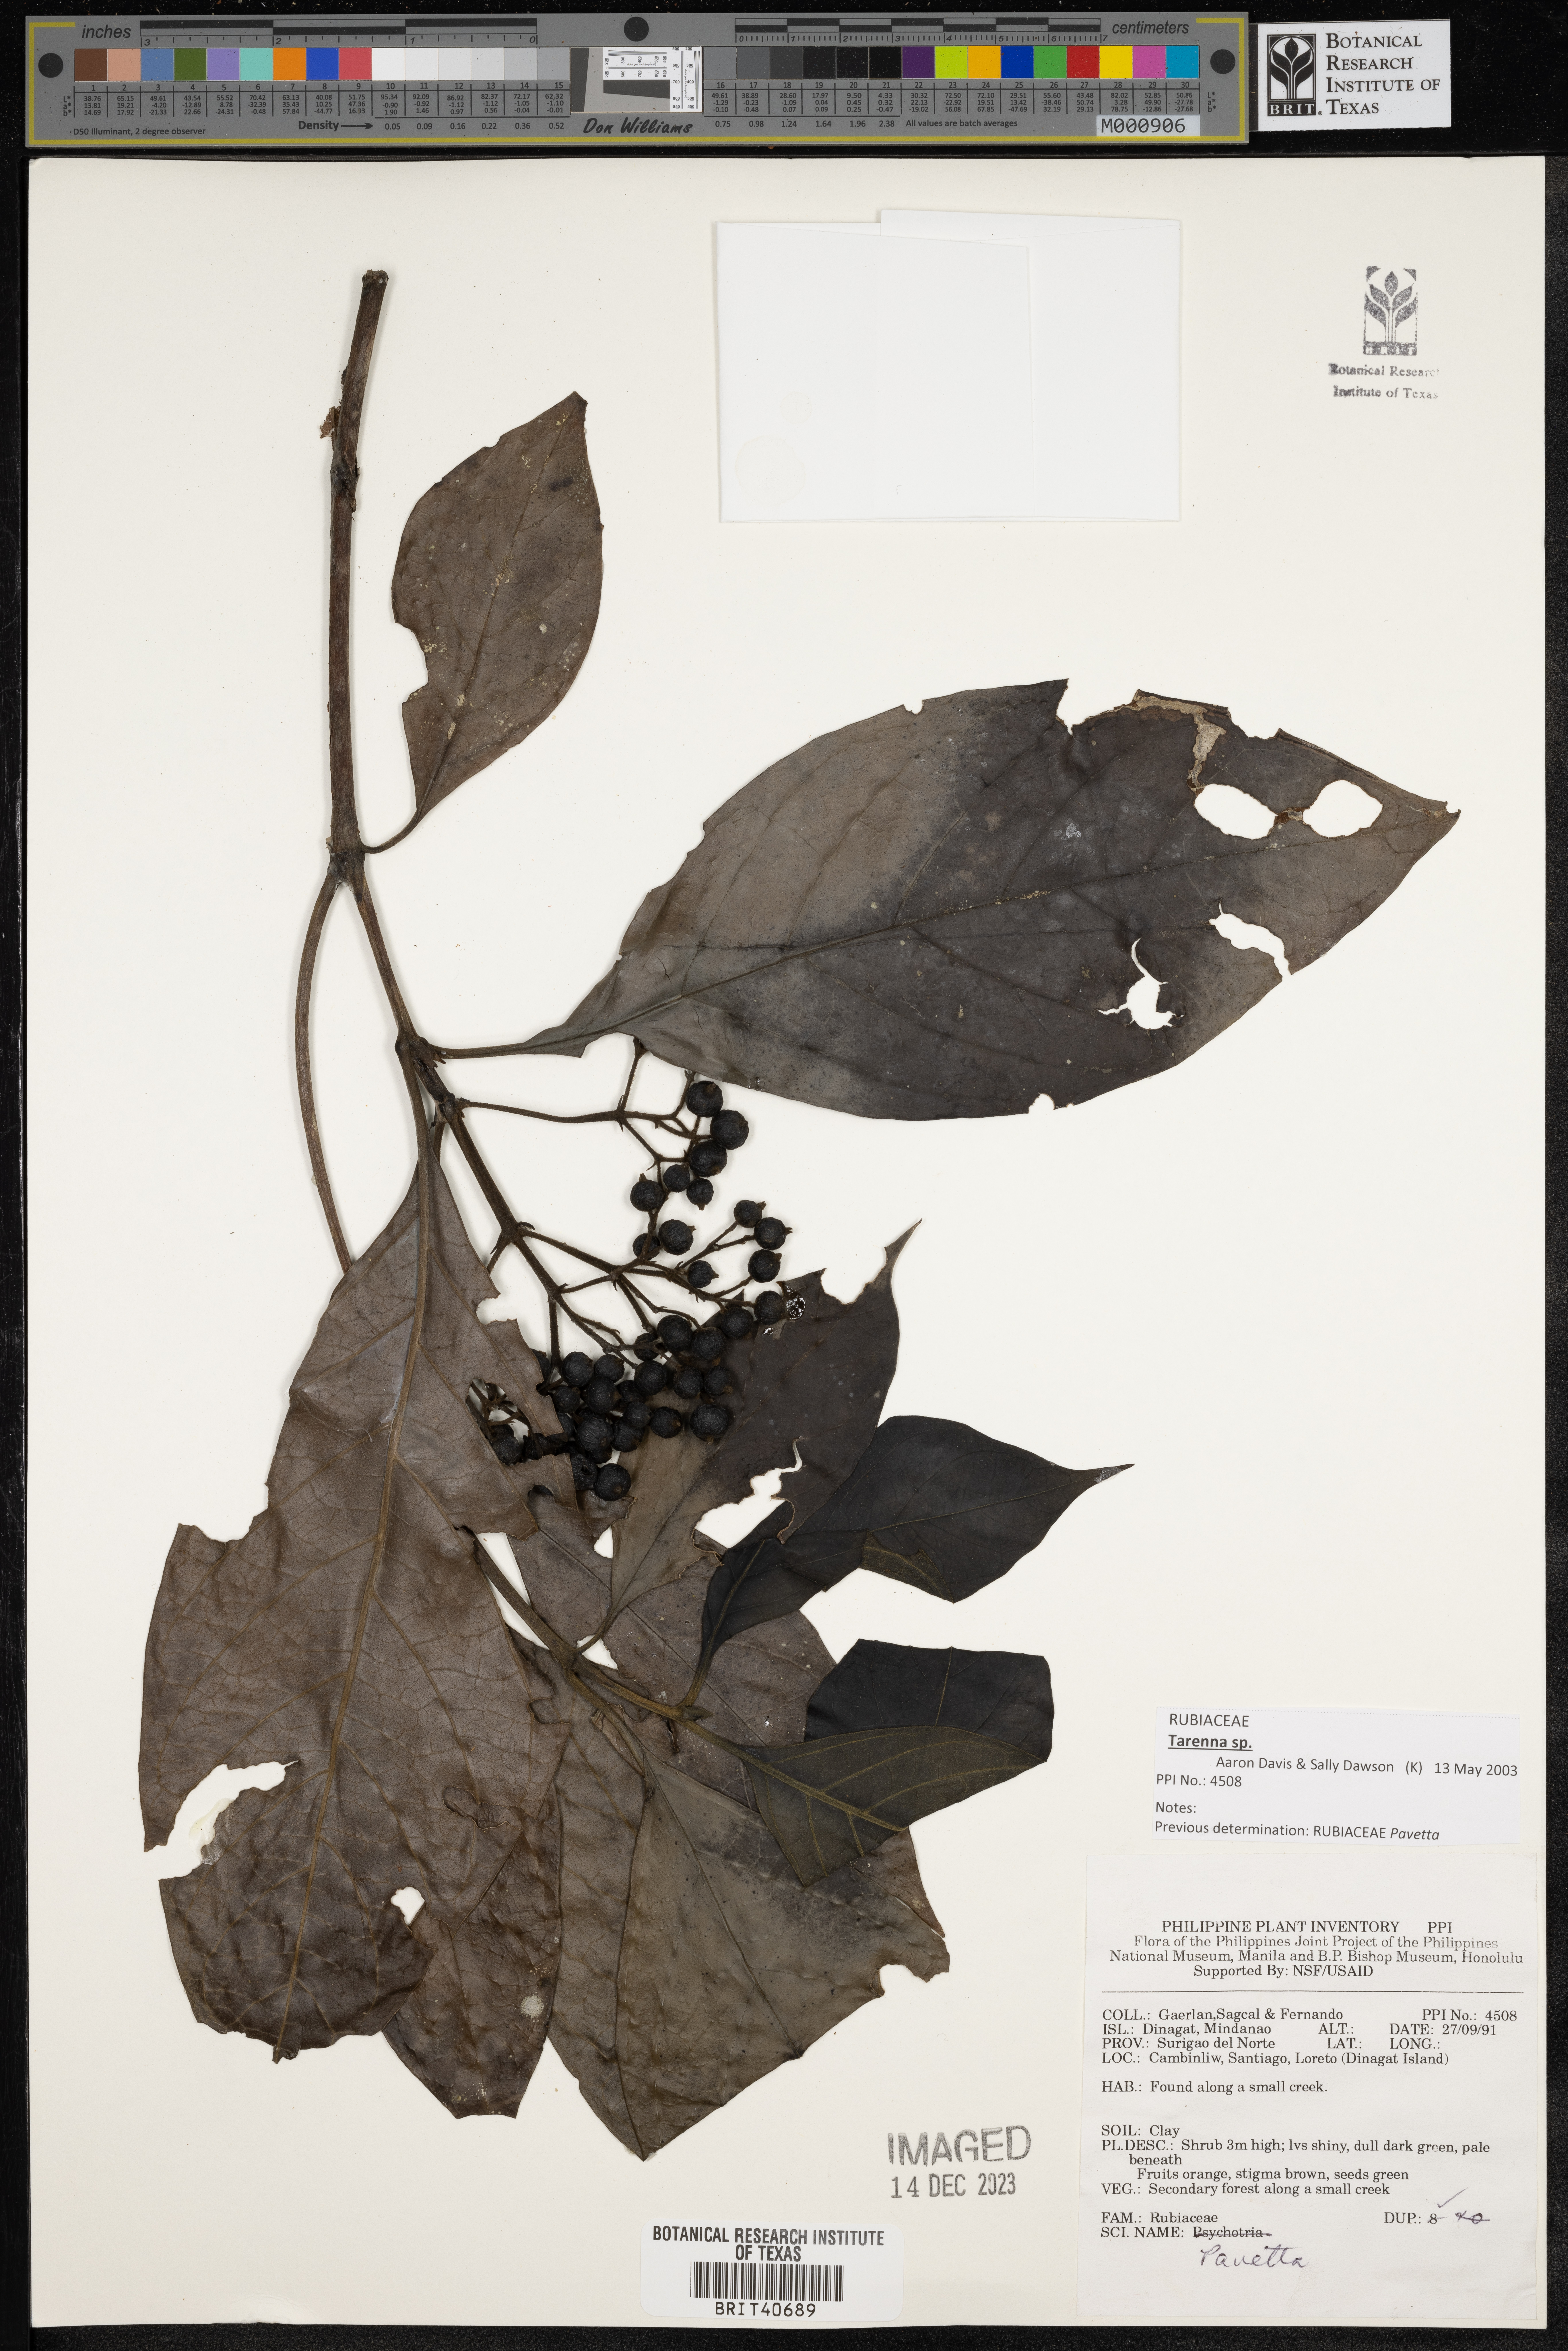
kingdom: Plantae
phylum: Tracheophyta
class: Magnoliopsida
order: Gentianales
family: Rubiaceae
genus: Pavetta
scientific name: Pavetta
